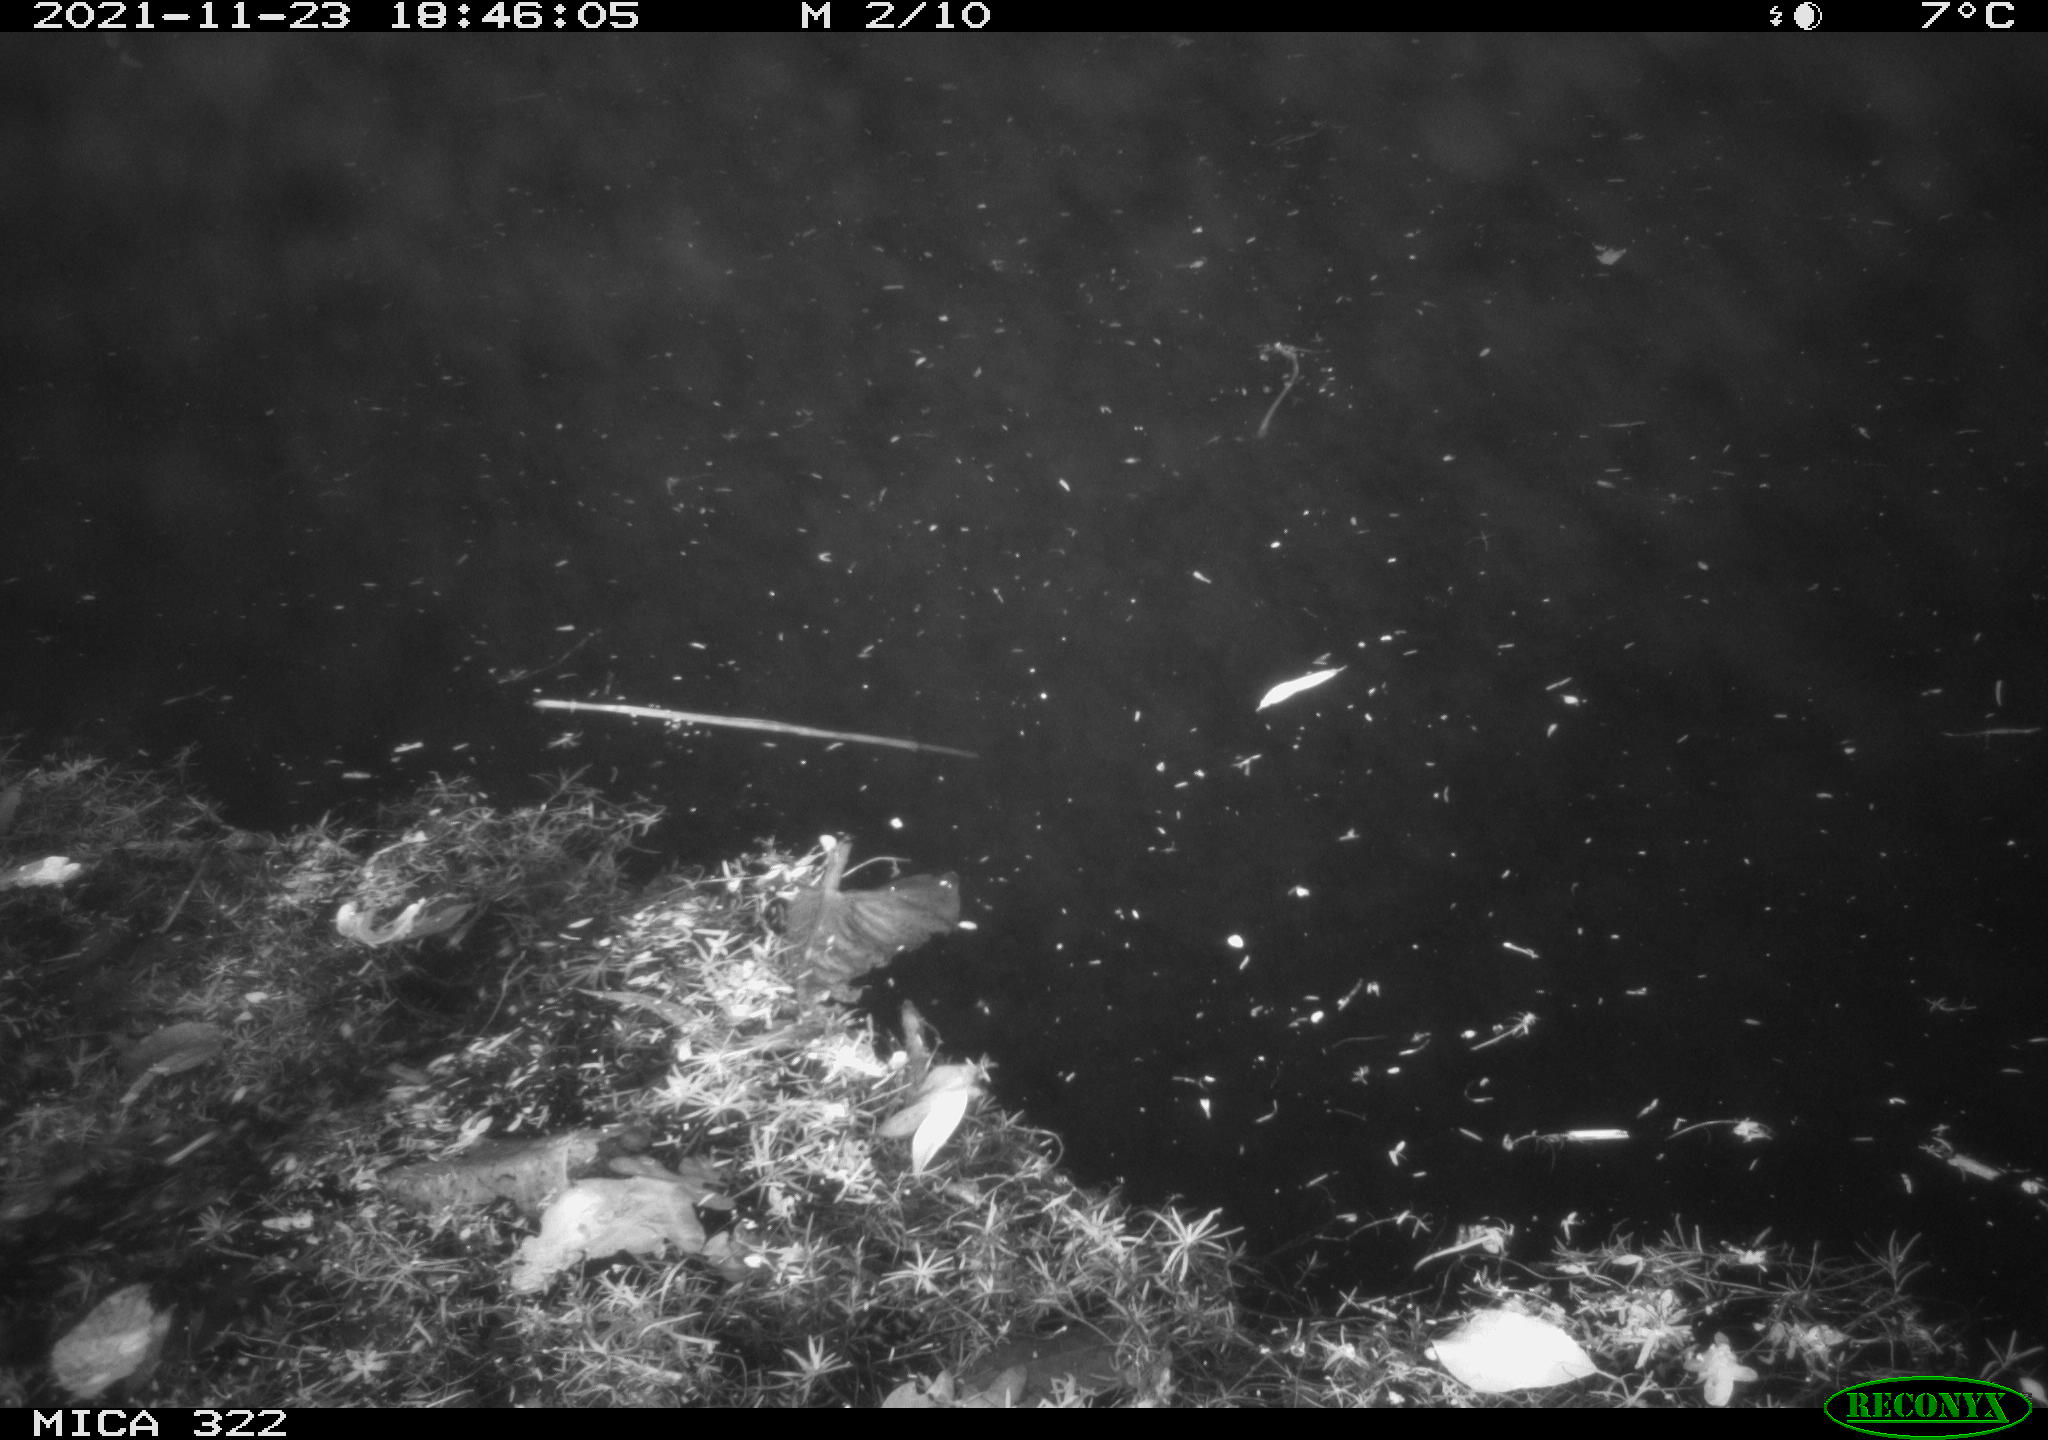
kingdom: Animalia
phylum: Chordata
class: Mammalia
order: Rodentia
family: Muridae
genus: Rattus
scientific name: Rattus norvegicus
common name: Brown rat
